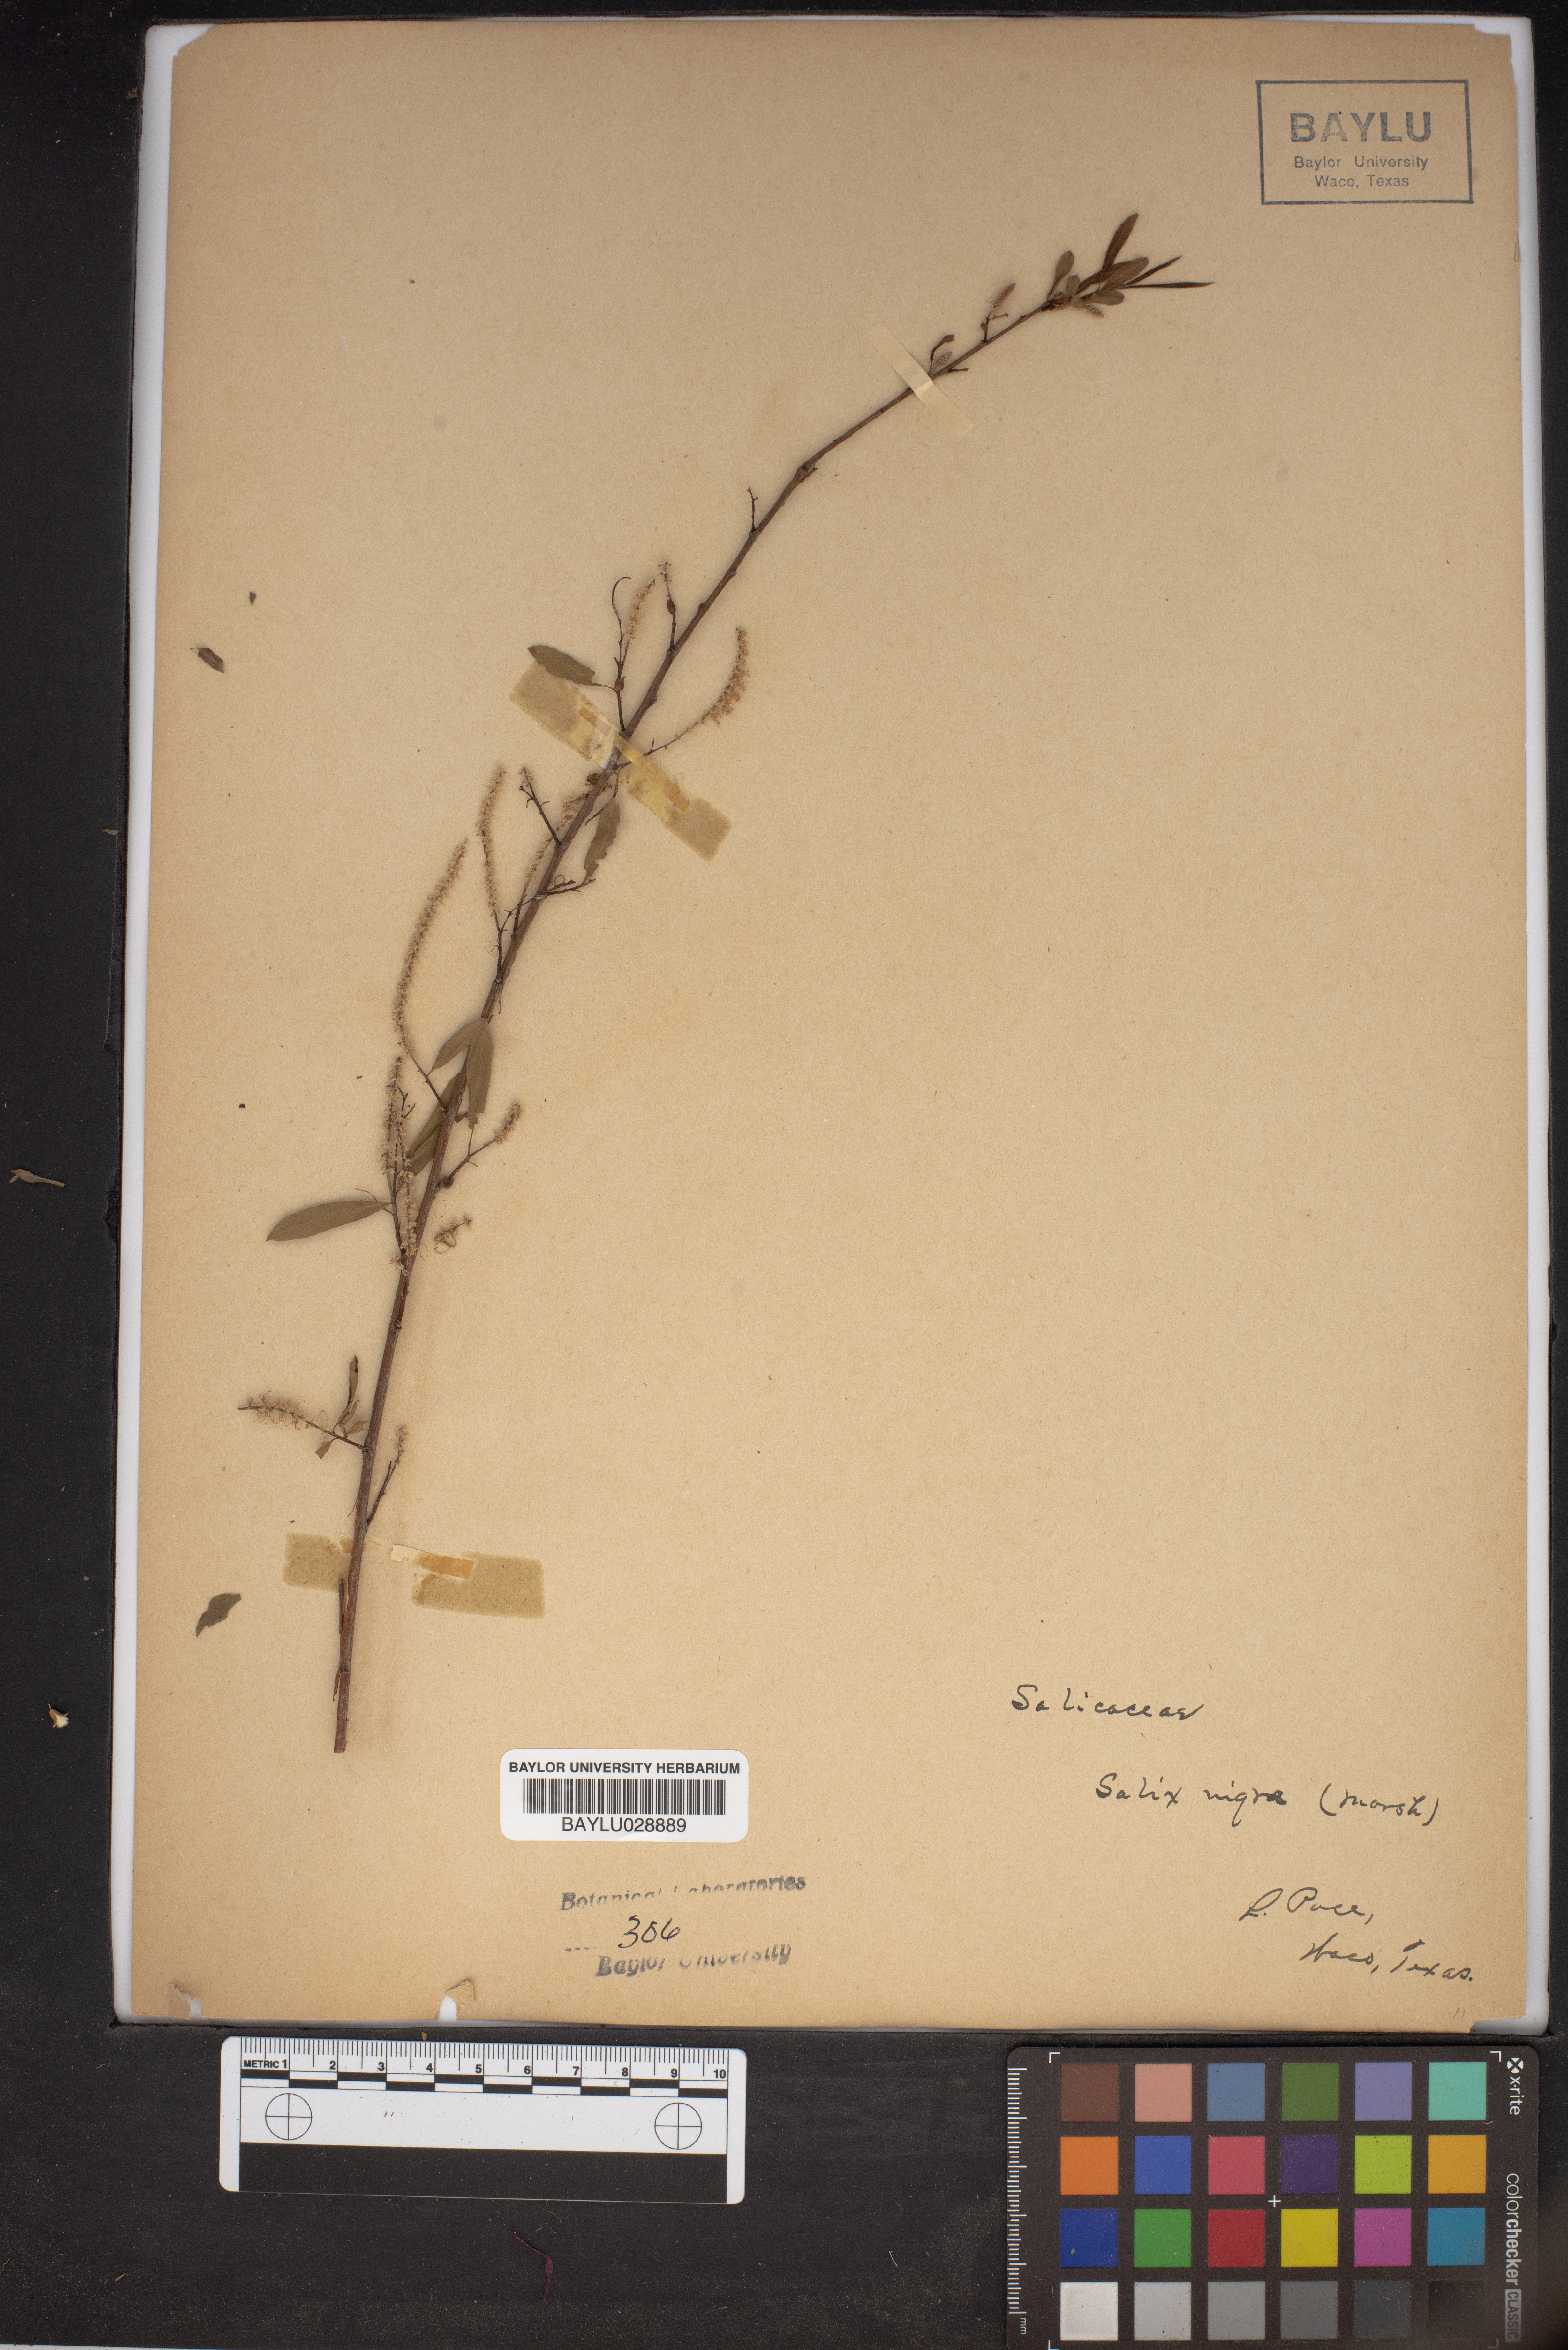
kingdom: Plantae
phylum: Tracheophyta
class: Magnoliopsida
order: Malpighiales
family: Salicaceae
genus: Salix
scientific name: Salix nigra
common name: Black willow
